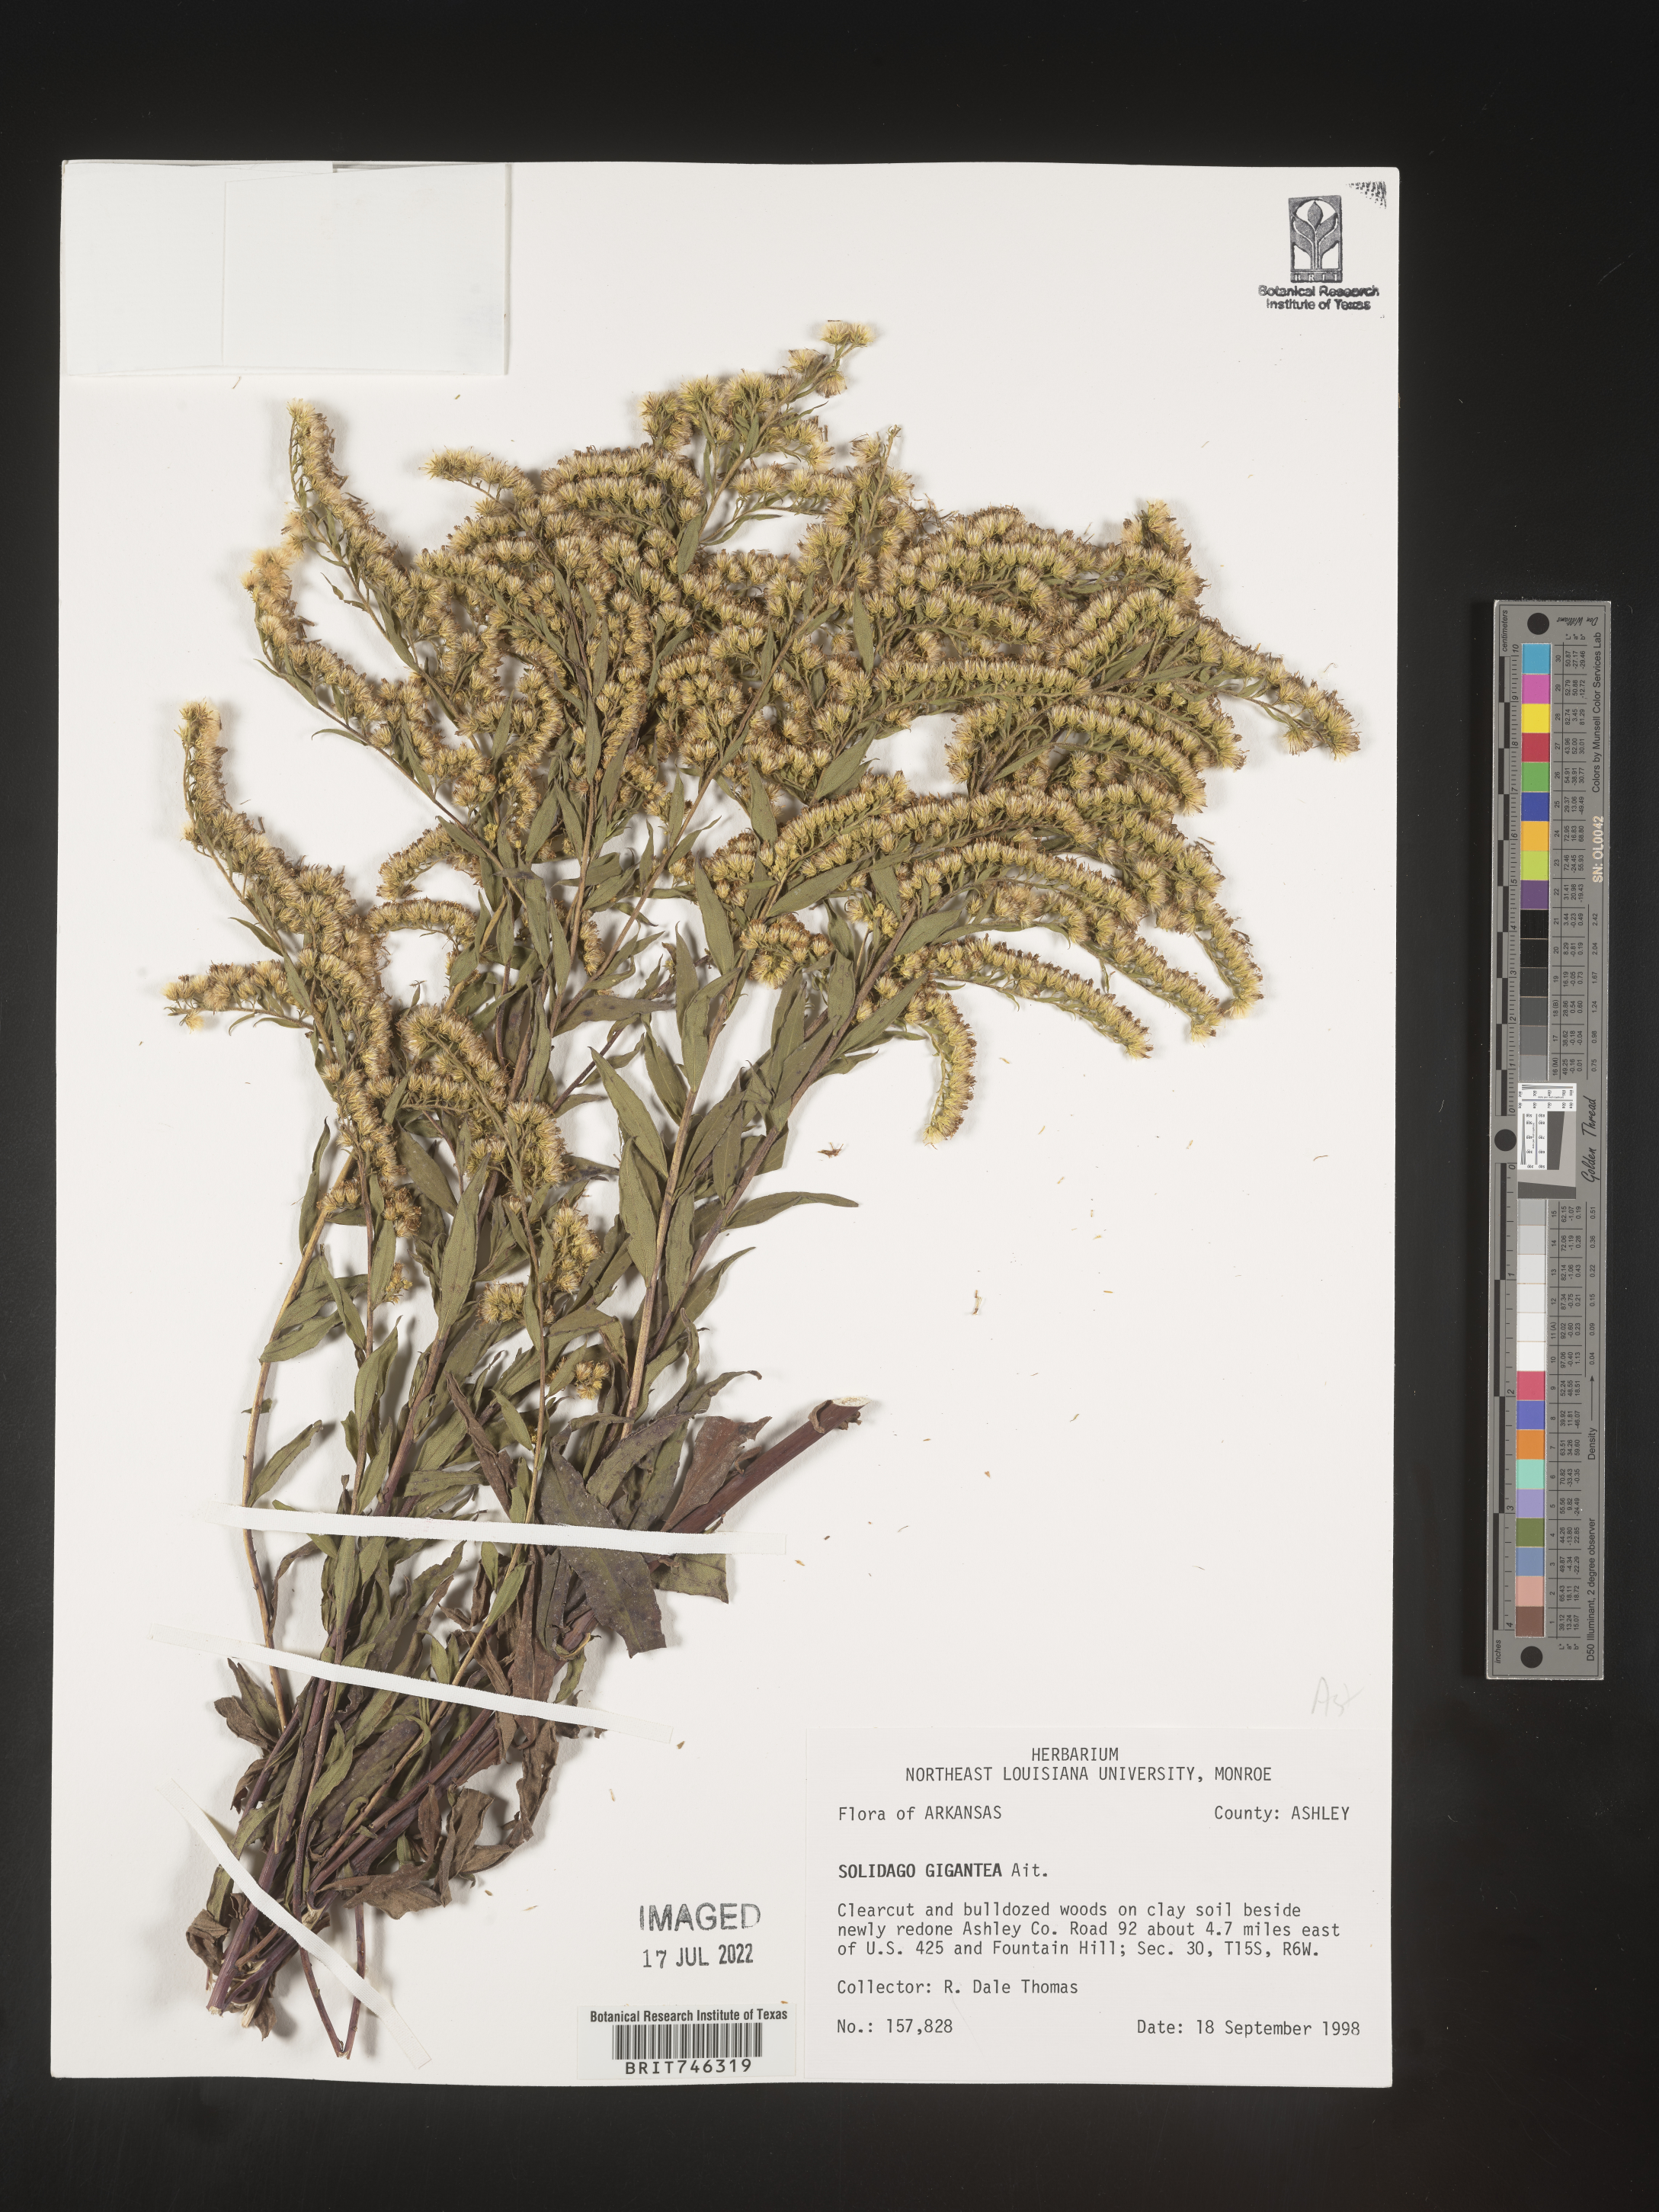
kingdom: Plantae
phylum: Tracheophyta
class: Magnoliopsida
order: Asterales
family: Asteraceae
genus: Solidago
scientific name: Solidago gigantea
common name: Giant goldenrod
